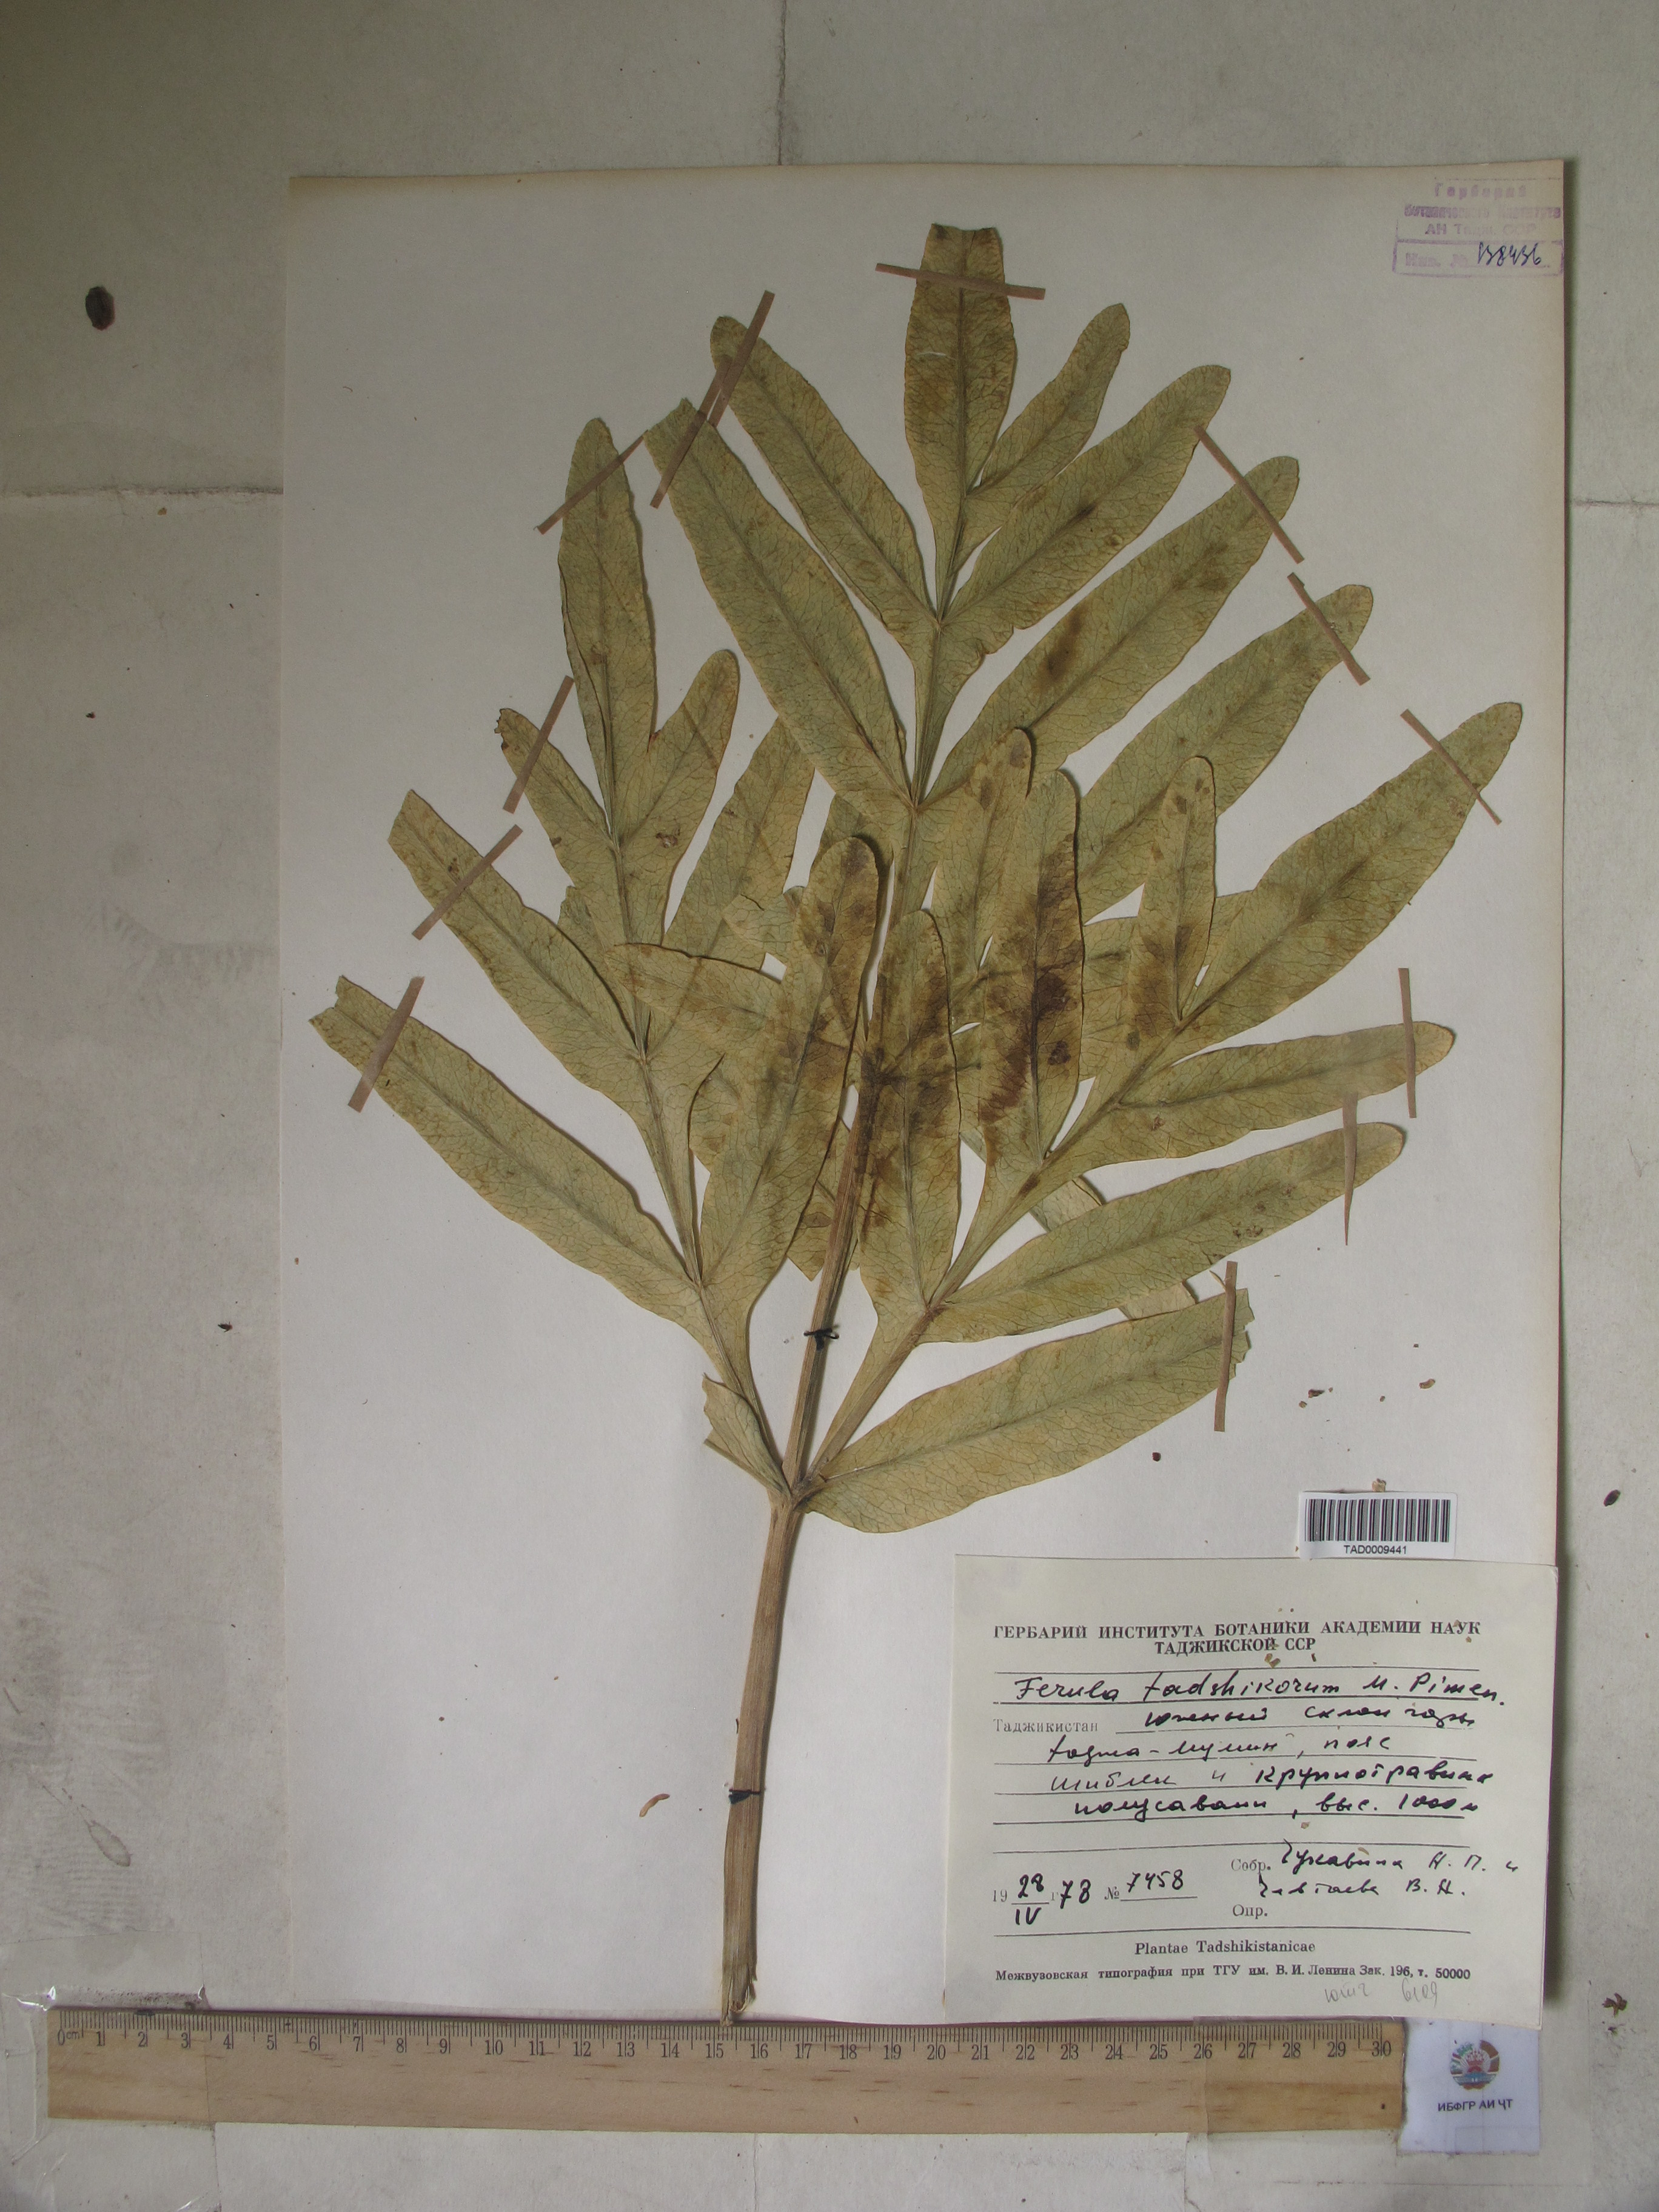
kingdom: Plantae
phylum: Tracheophyta
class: Magnoliopsida
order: Apiales
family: Apiaceae
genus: Ferula
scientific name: Ferula tadshikorum
